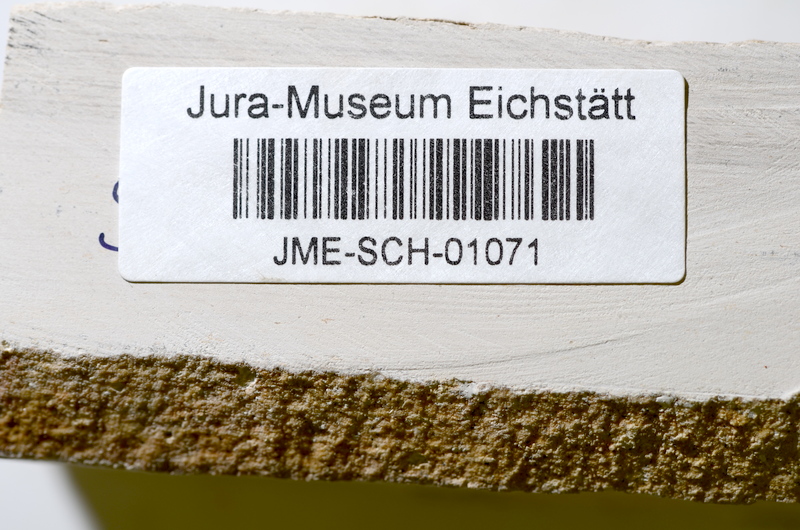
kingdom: Animalia
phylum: Chordata
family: Ascalaboidae
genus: Tharsis
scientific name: Tharsis dubius
